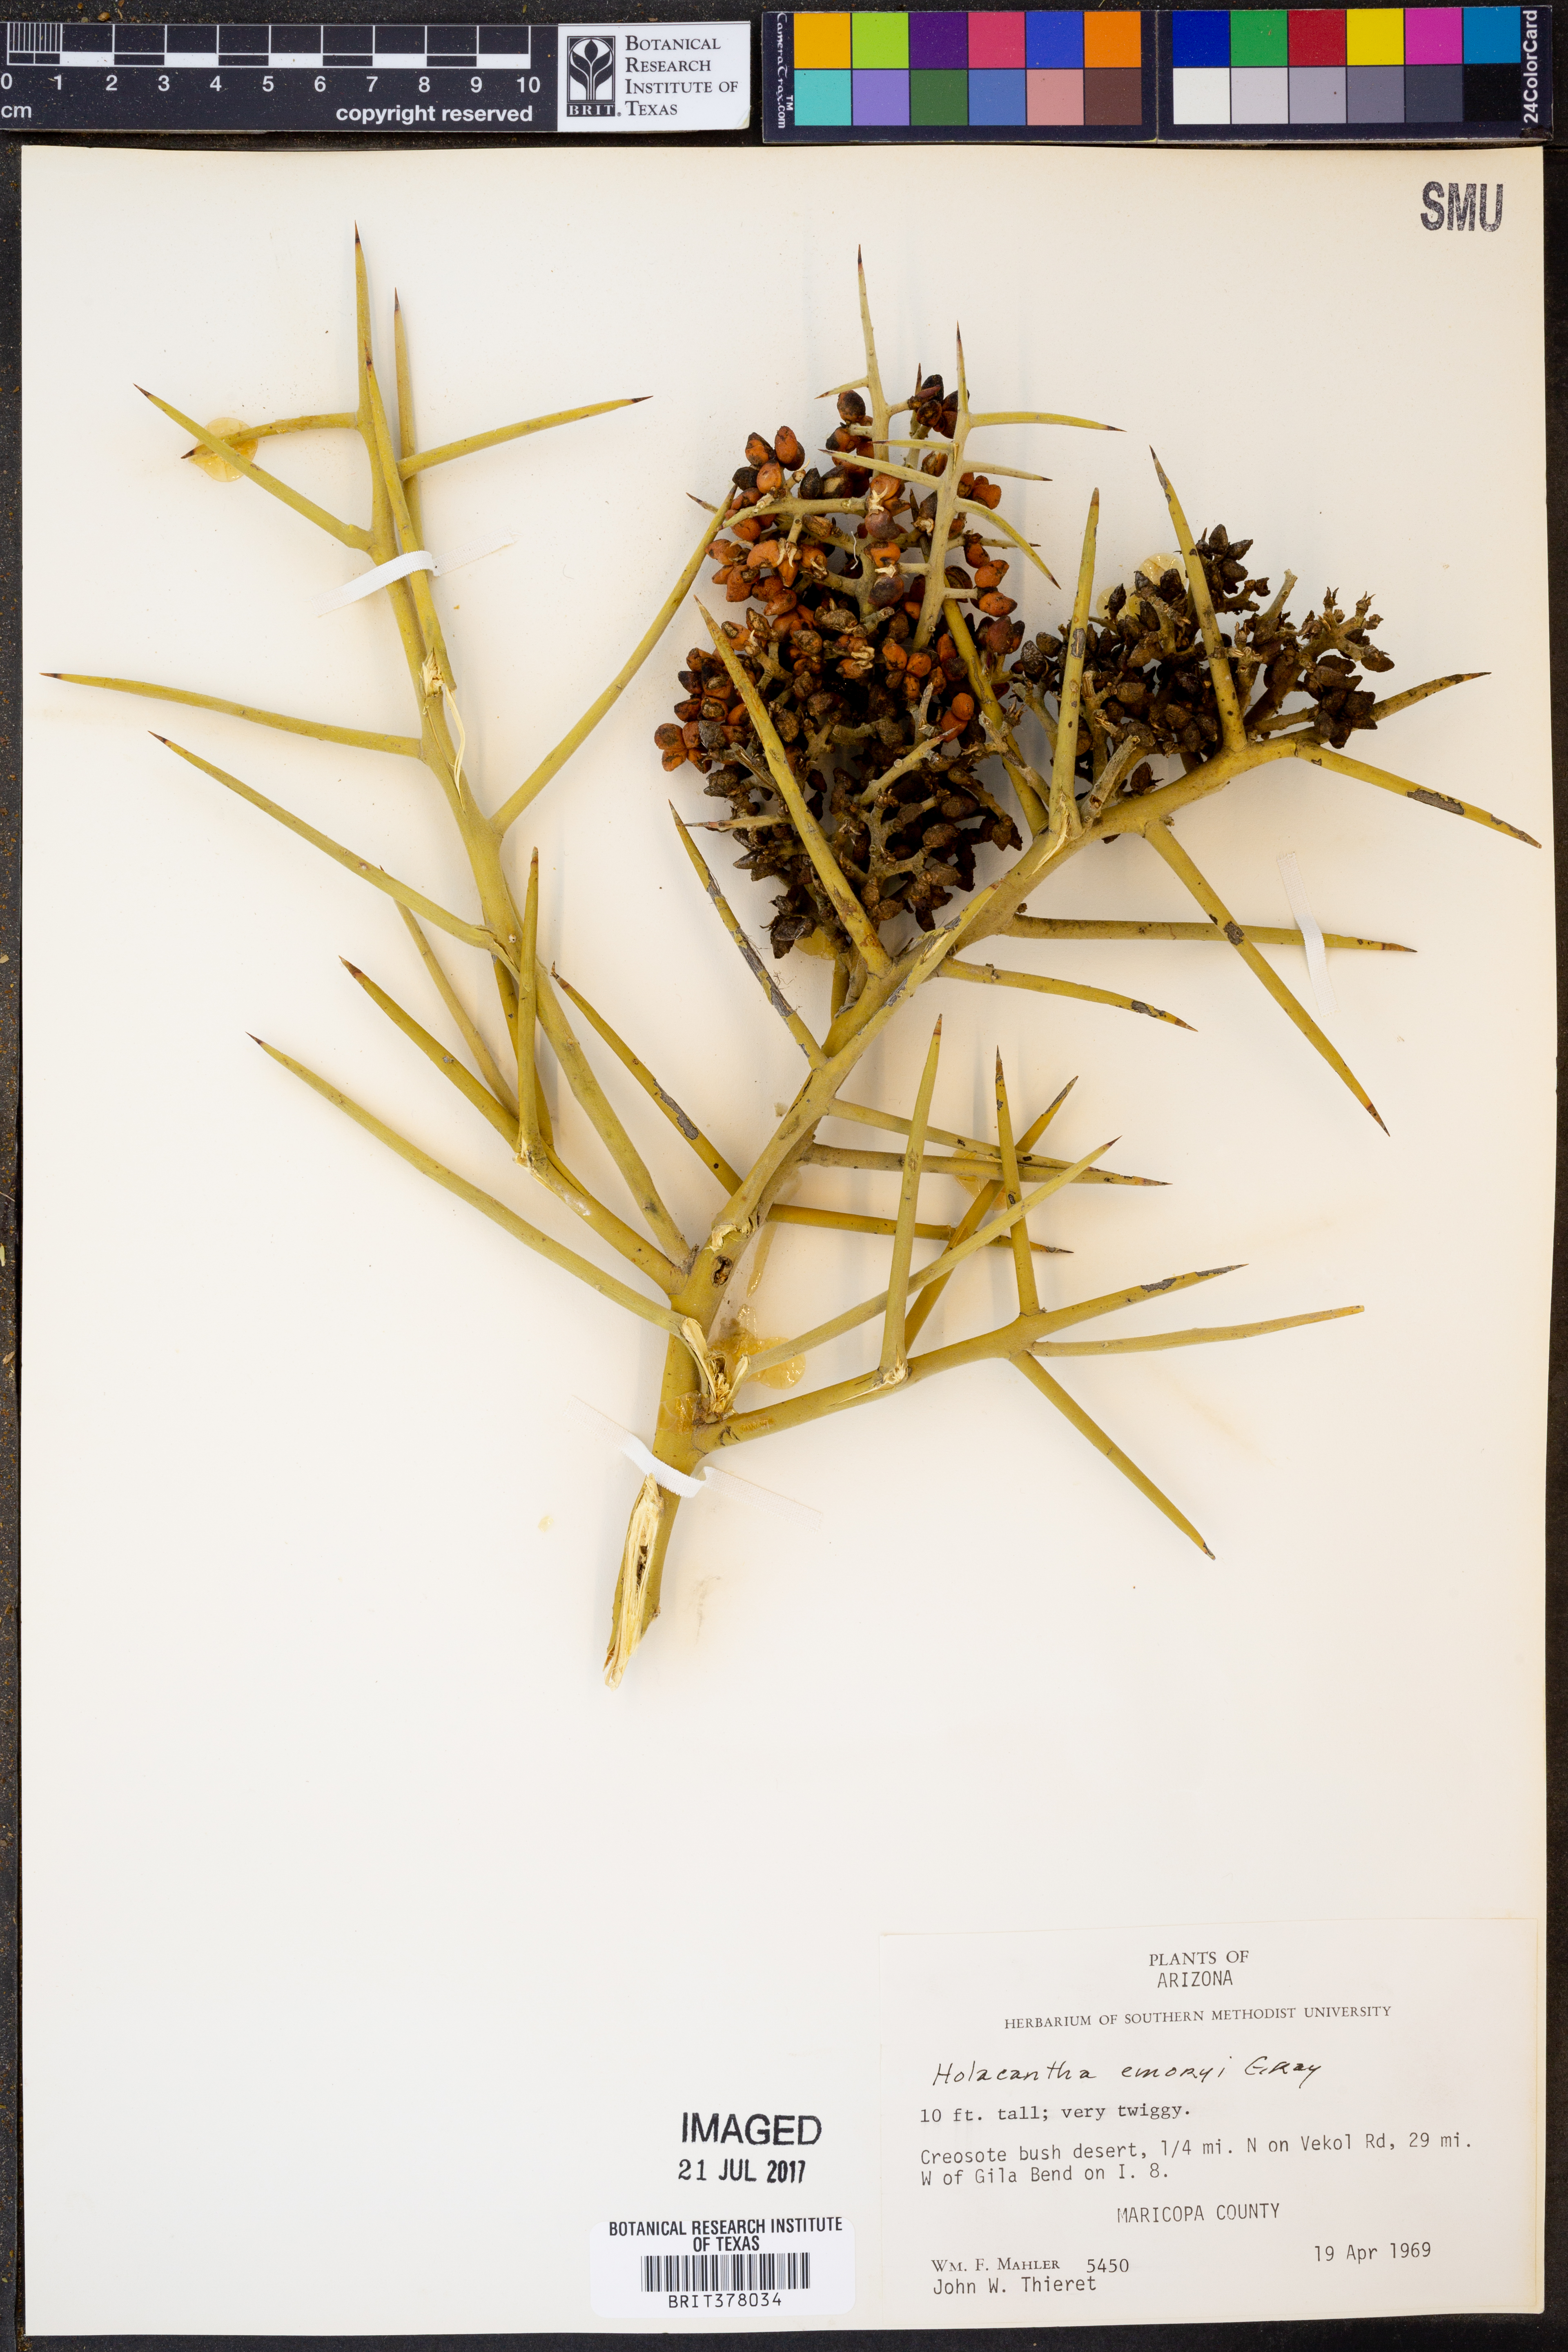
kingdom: Plantae
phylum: Tracheophyta
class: Magnoliopsida
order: Sapindales
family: Simaroubaceae
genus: Holacantha
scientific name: Holacantha emoryi
